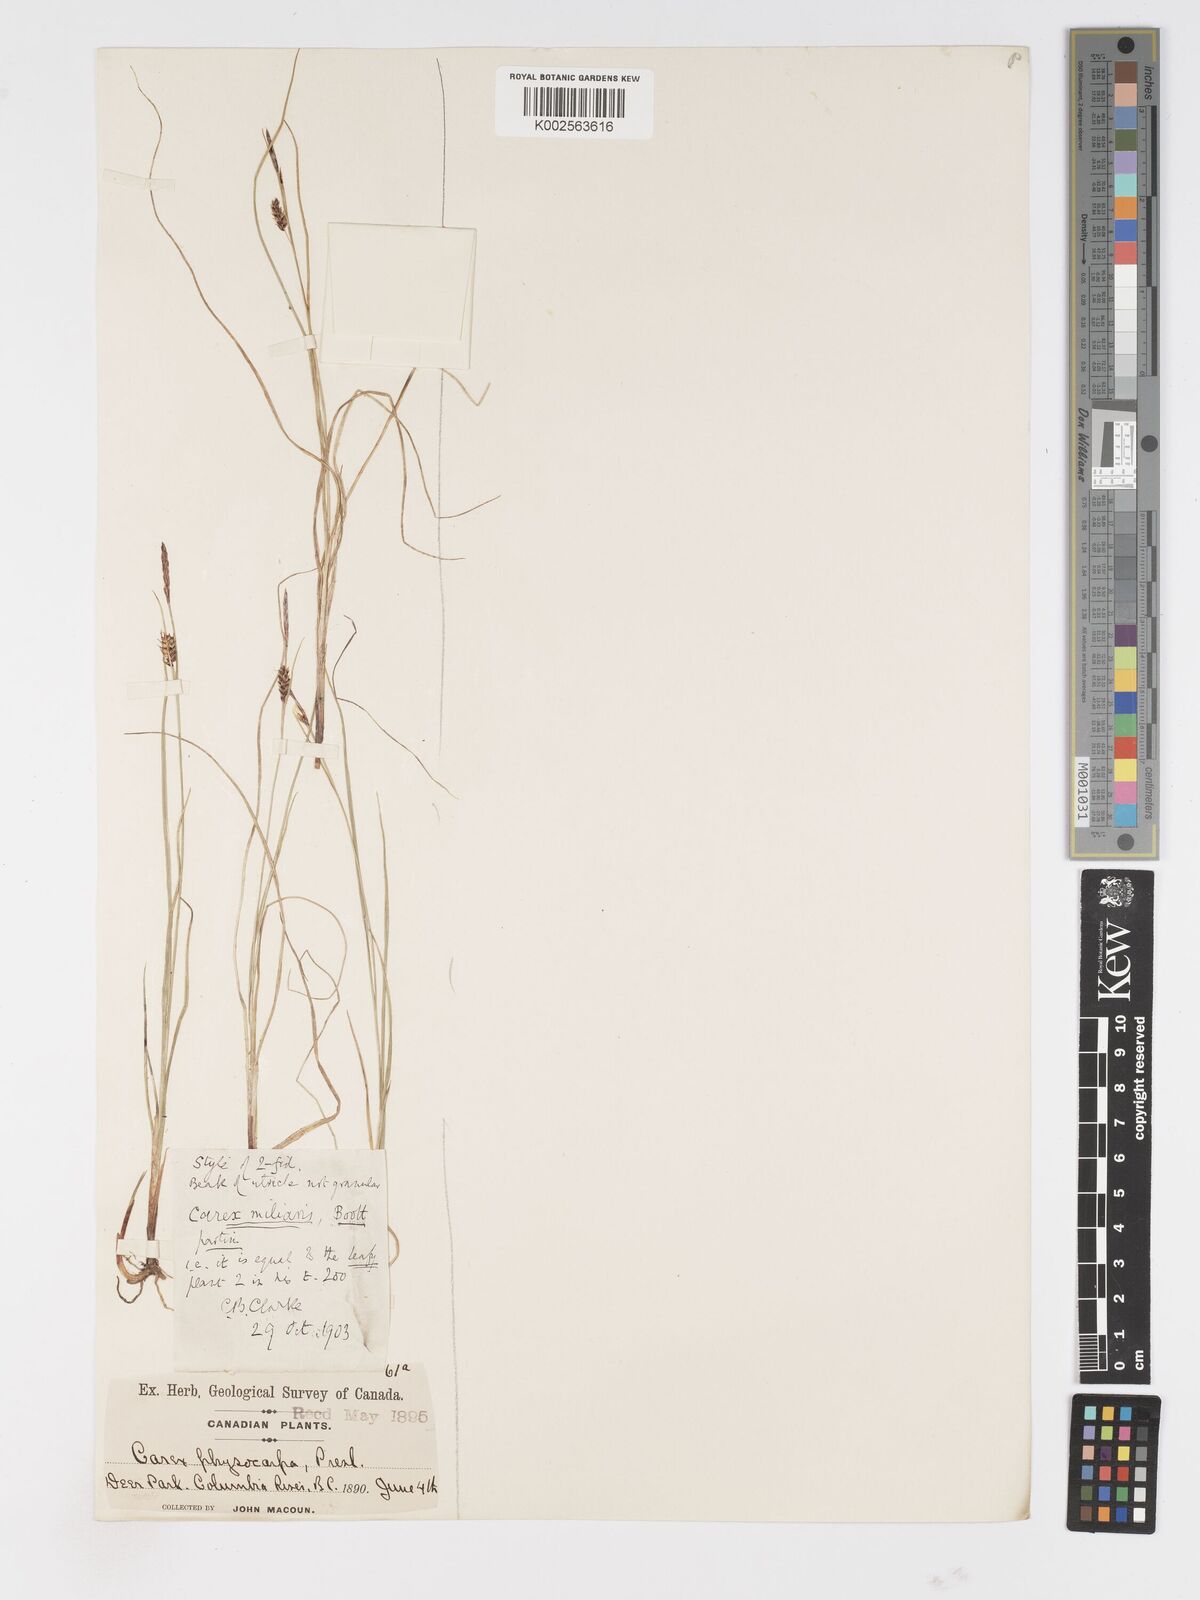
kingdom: Plantae
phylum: Tracheophyta
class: Liliopsida
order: Poales
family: Cyperaceae
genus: Carex
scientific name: Carex
